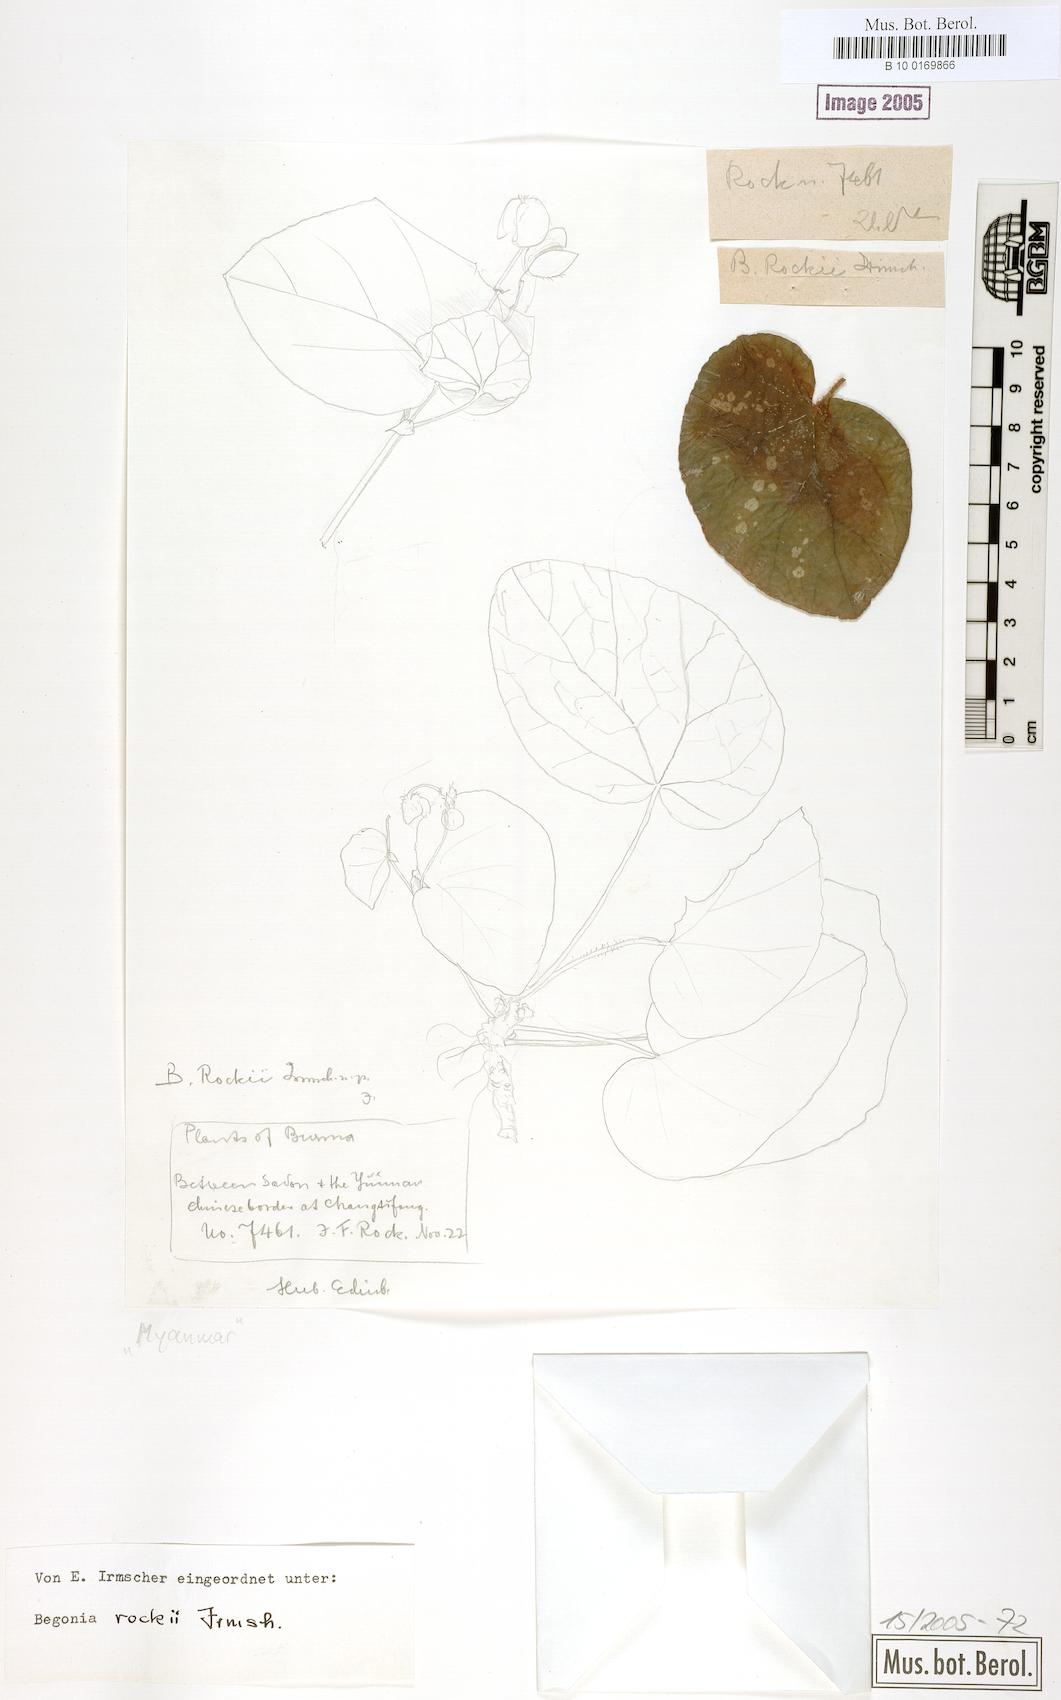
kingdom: Plantae
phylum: Tracheophyta
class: Magnoliopsida
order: Cucurbitales
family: Begoniaceae
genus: Begonia
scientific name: Begonia rockii
